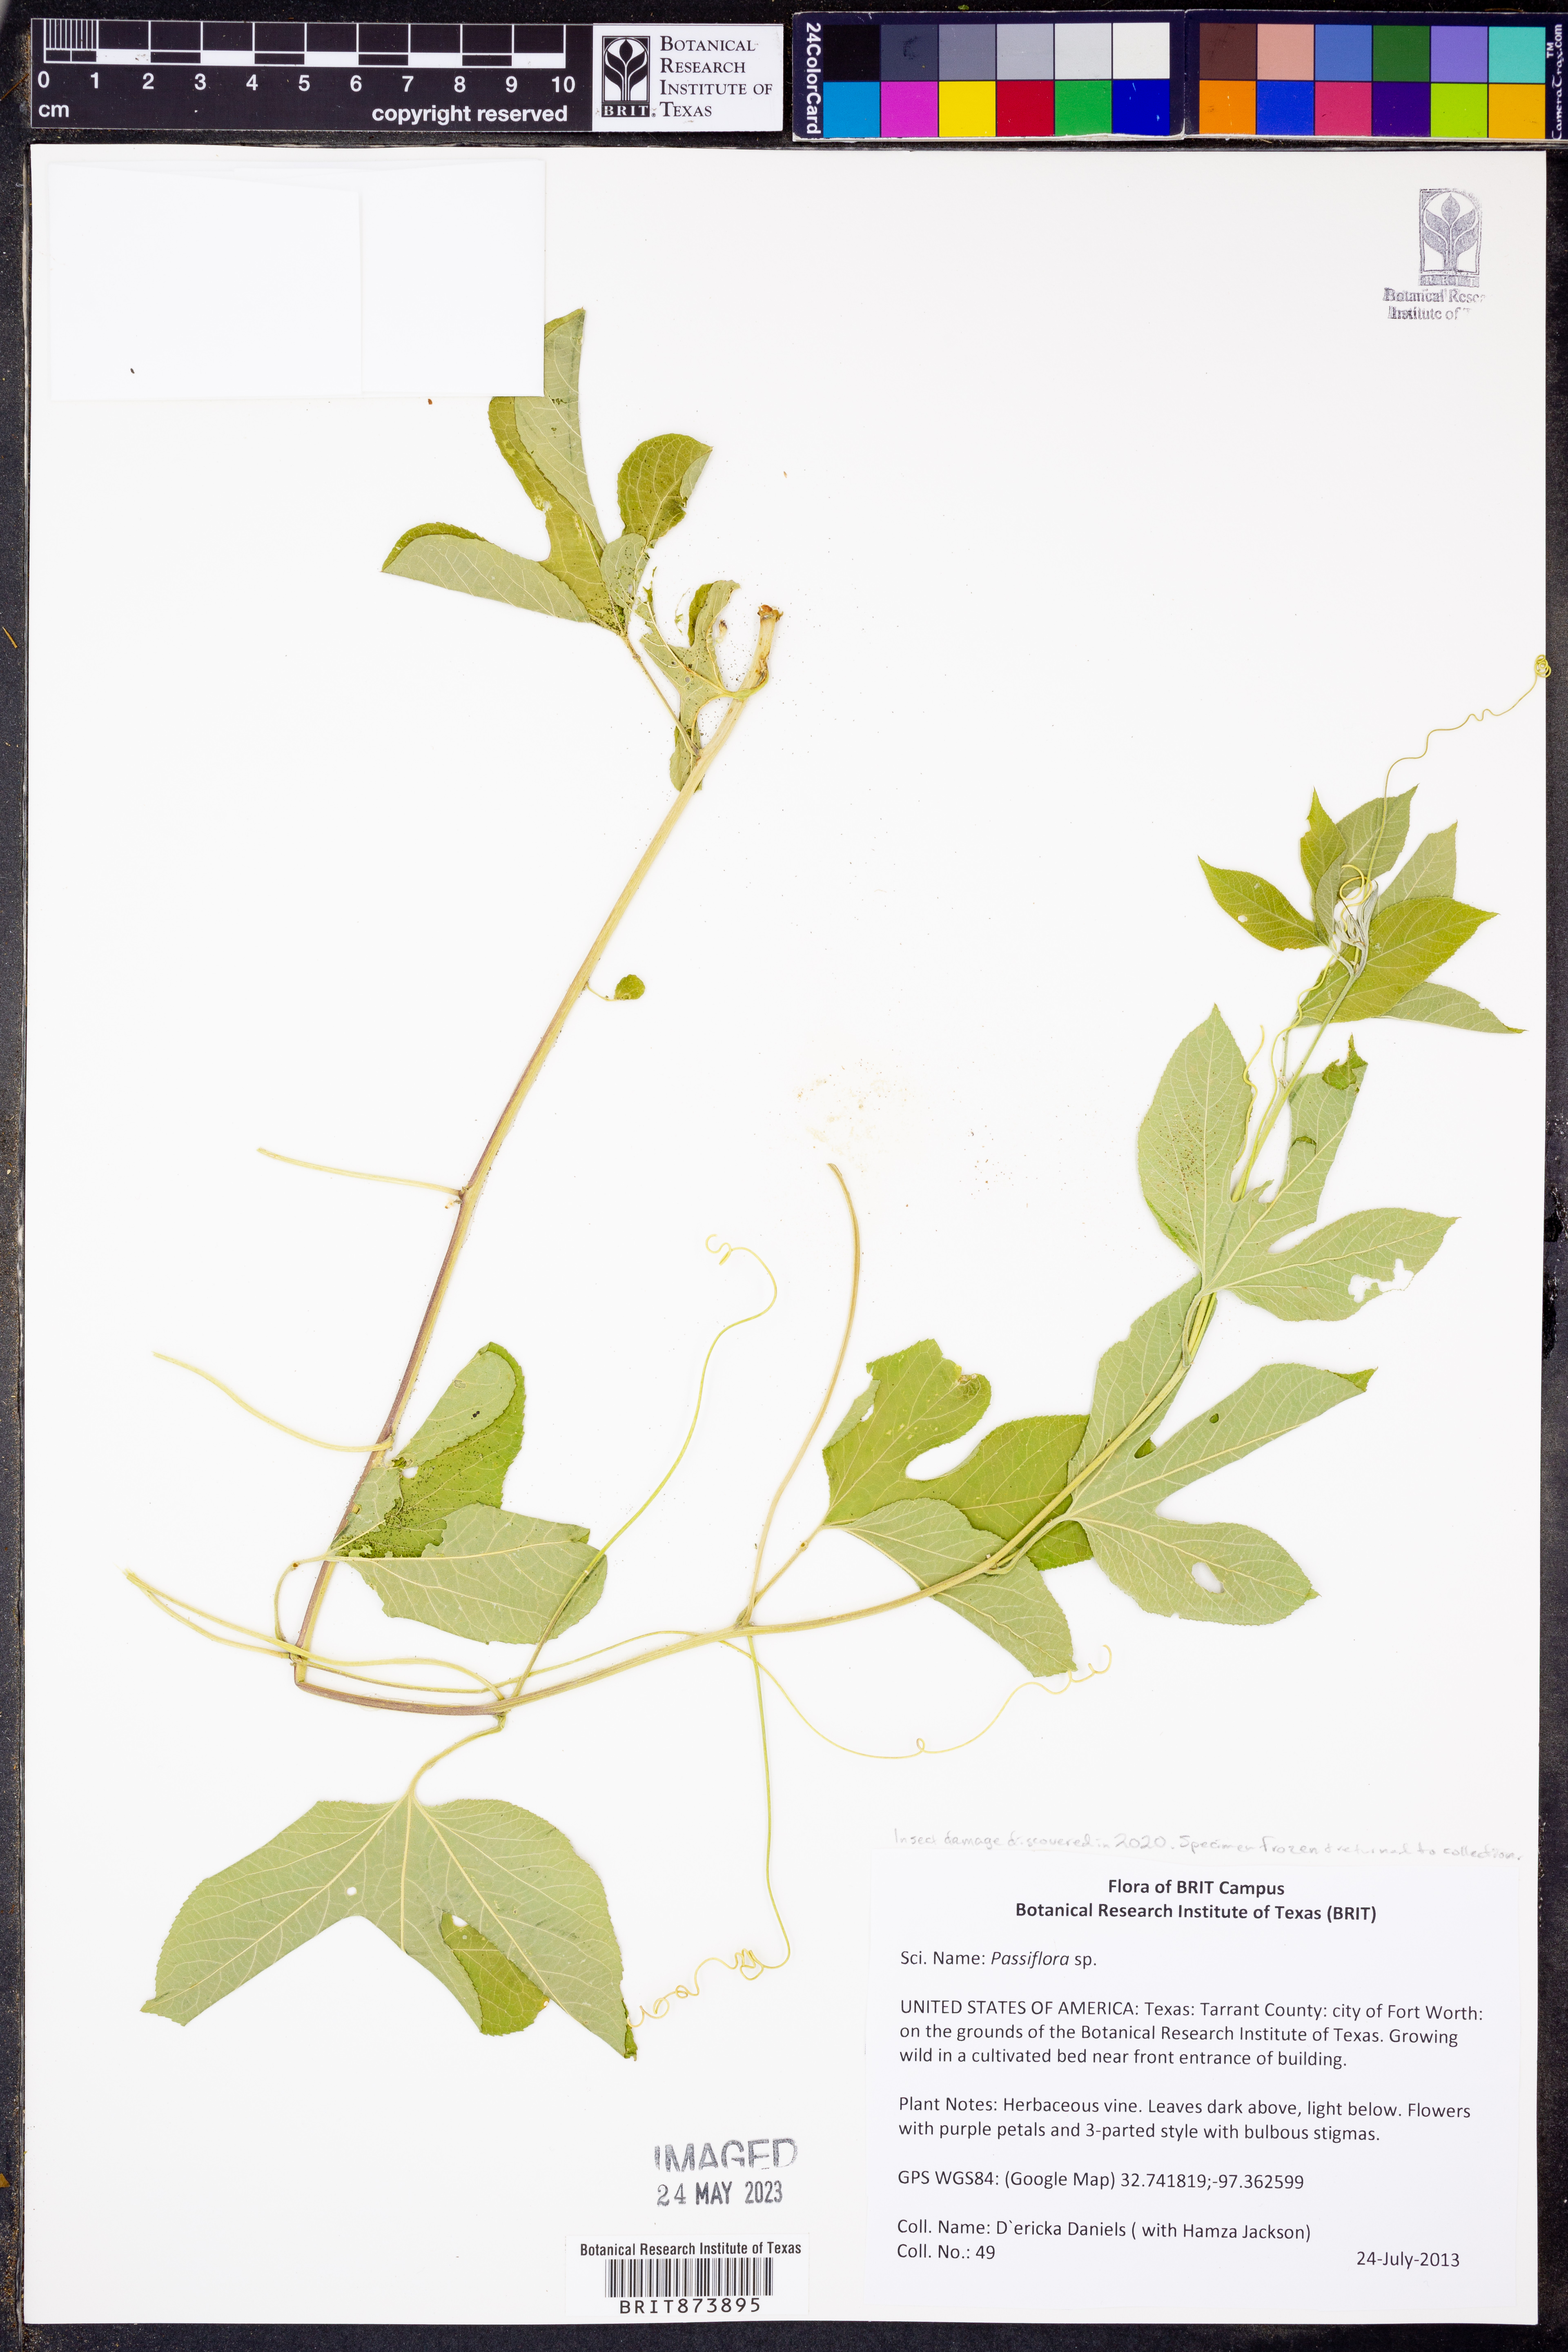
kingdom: Plantae
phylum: Tracheophyta
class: Magnoliopsida
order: Malpighiales
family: Passifloraceae
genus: Passiflora
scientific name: Passiflora
